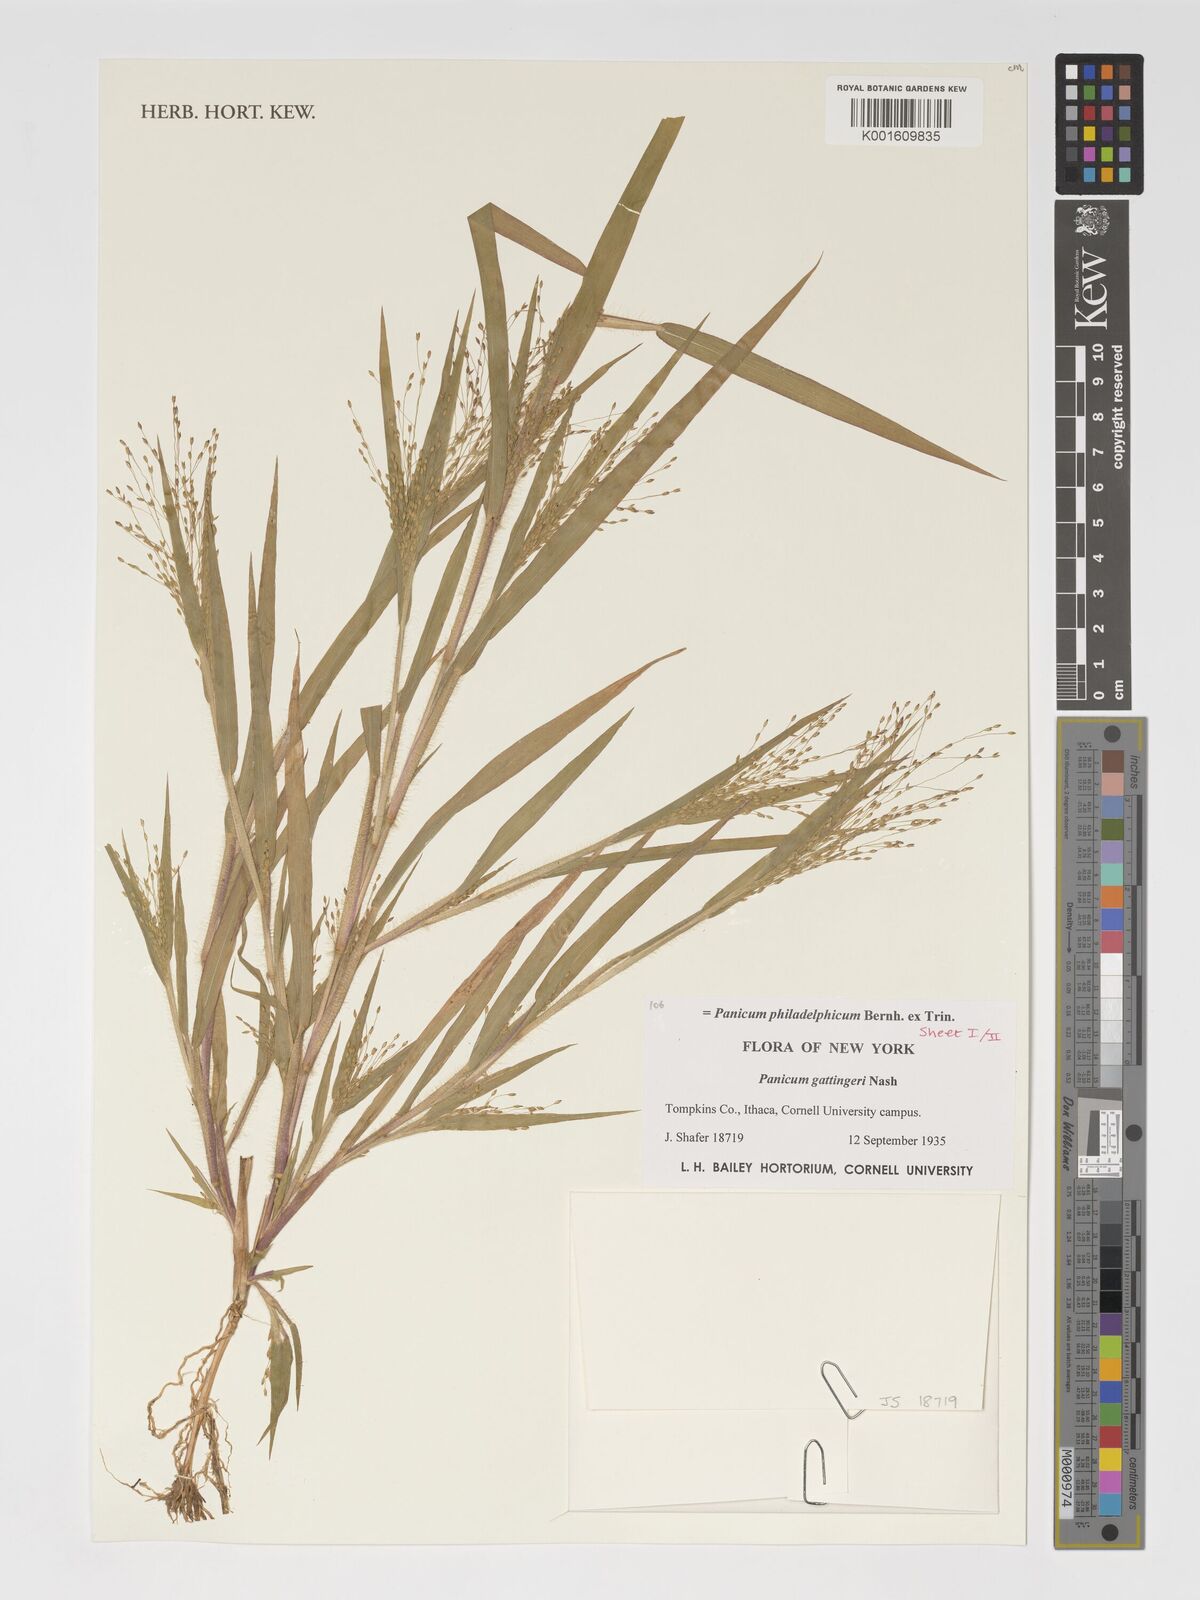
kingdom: Plantae
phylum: Tracheophyta
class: Liliopsida
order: Poales
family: Poaceae
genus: Panicum
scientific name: Panicum philadelphicum
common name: Philadelphia witchgrass
